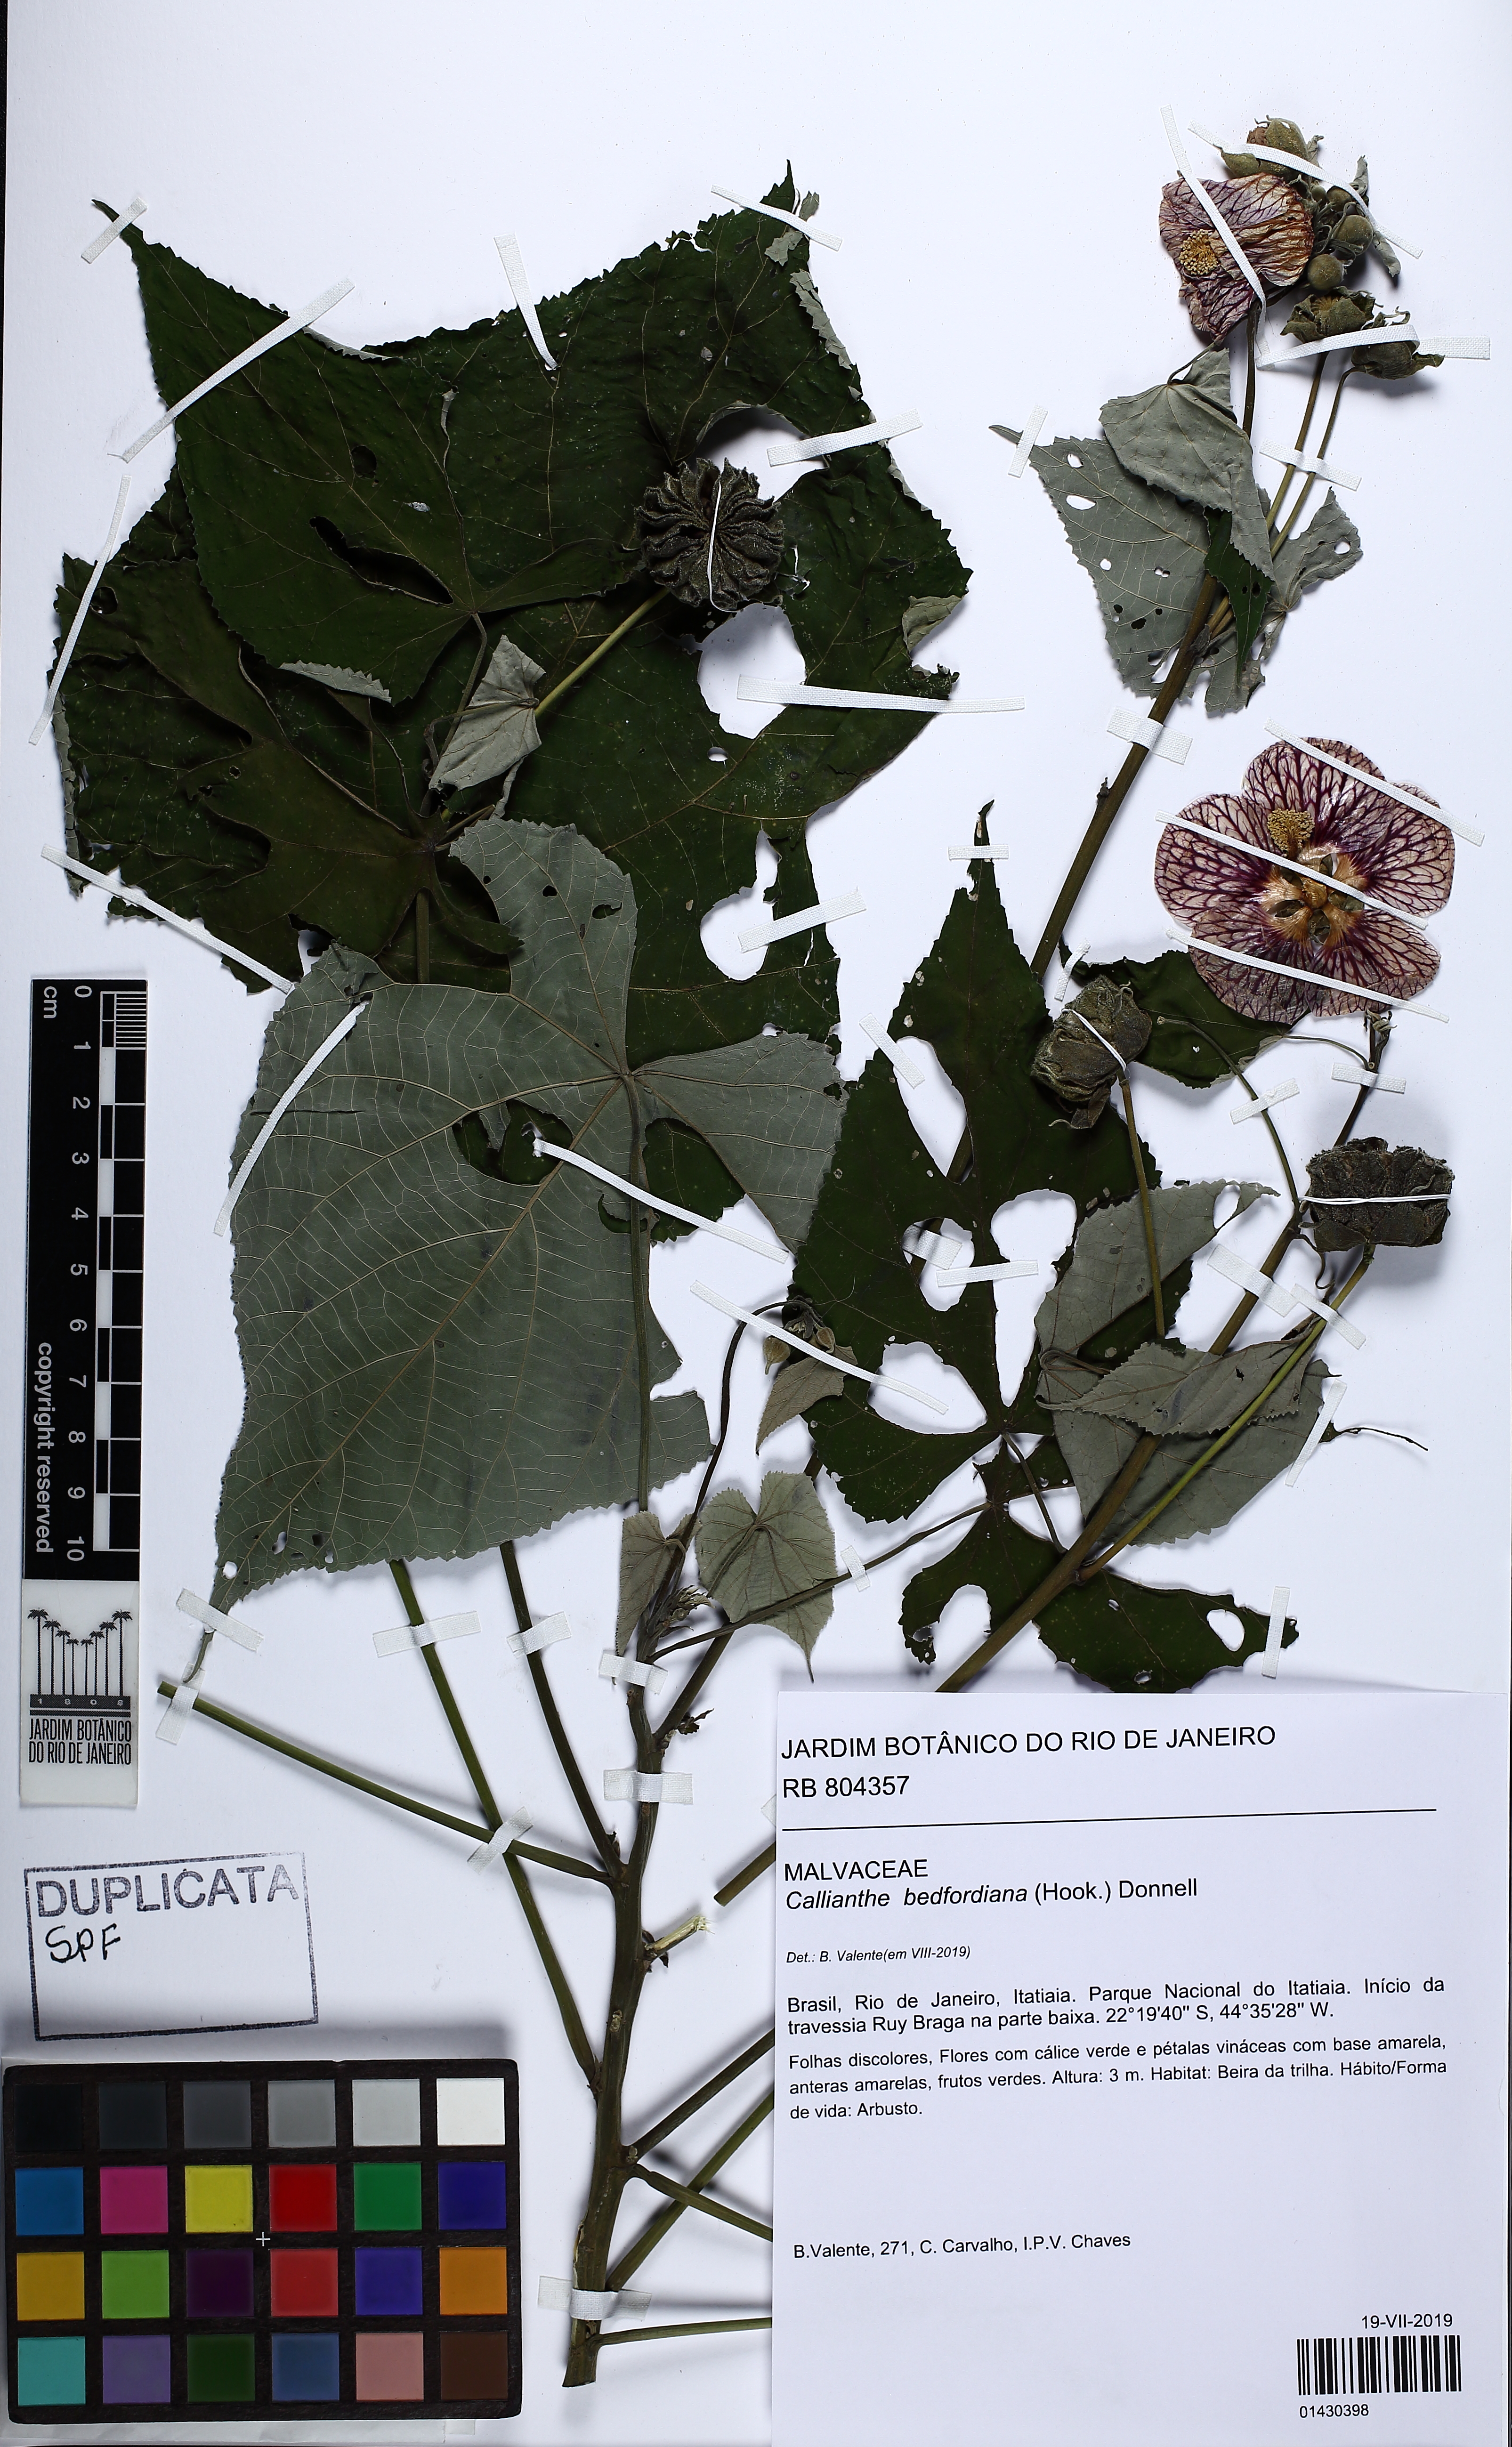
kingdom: Plantae
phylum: Tracheophyta
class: Magnoliopsida
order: Malvales
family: Malvaceae
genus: Callianthe
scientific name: Callianthe bedfordiana
